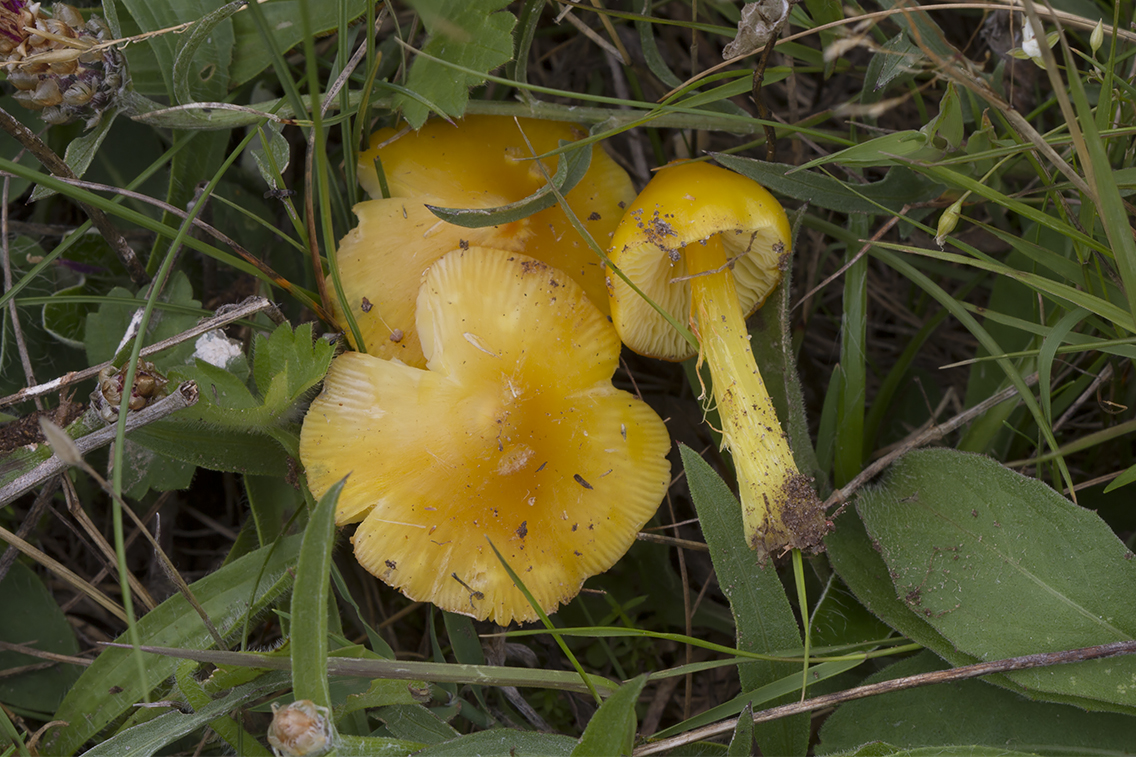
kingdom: Fungi
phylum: Basidiomycota
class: Agaricomycetes
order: Agaricales
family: Hygrophoraceae
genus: Hygrocybe
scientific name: Hygrocybe acutoconica
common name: spidspuklet vokshat
